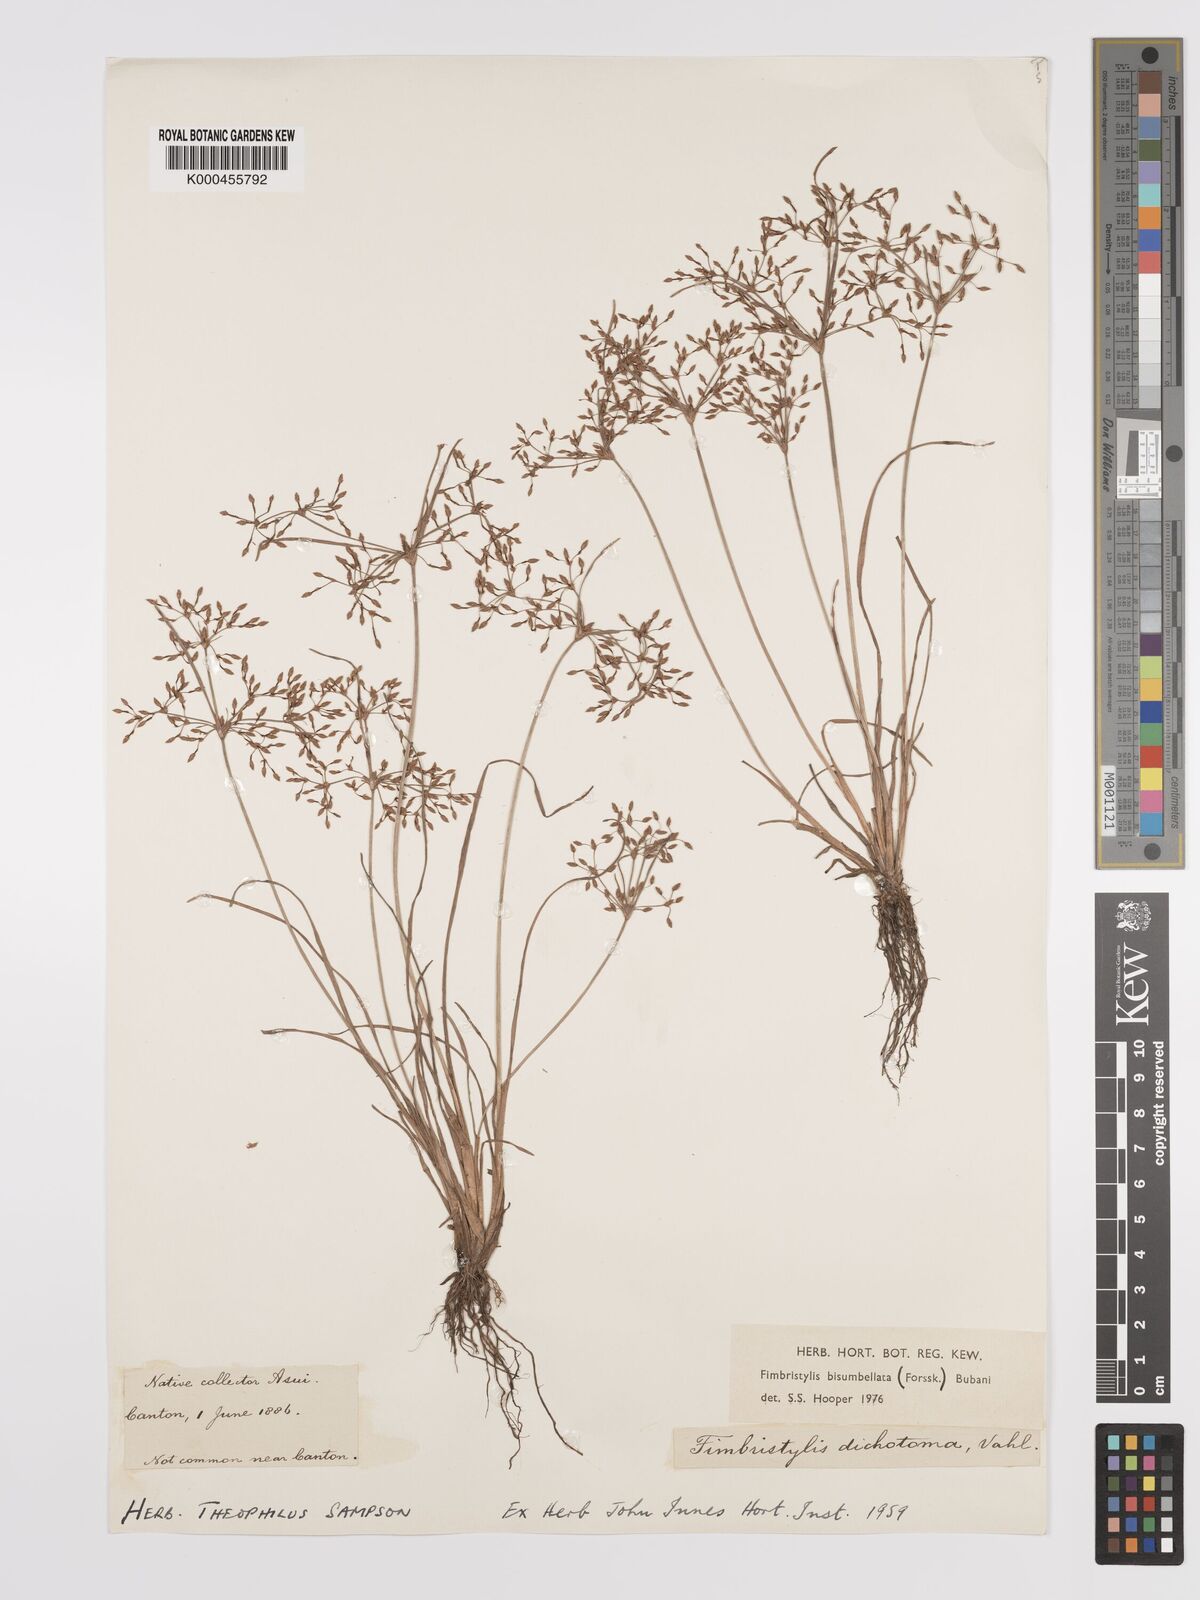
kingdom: Plantae
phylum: Tracheophyta
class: Liliopsida
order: Poales
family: Cyperaceae
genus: Fimbristylis
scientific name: Fimbristylis dichotoma
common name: Forked fimbry
